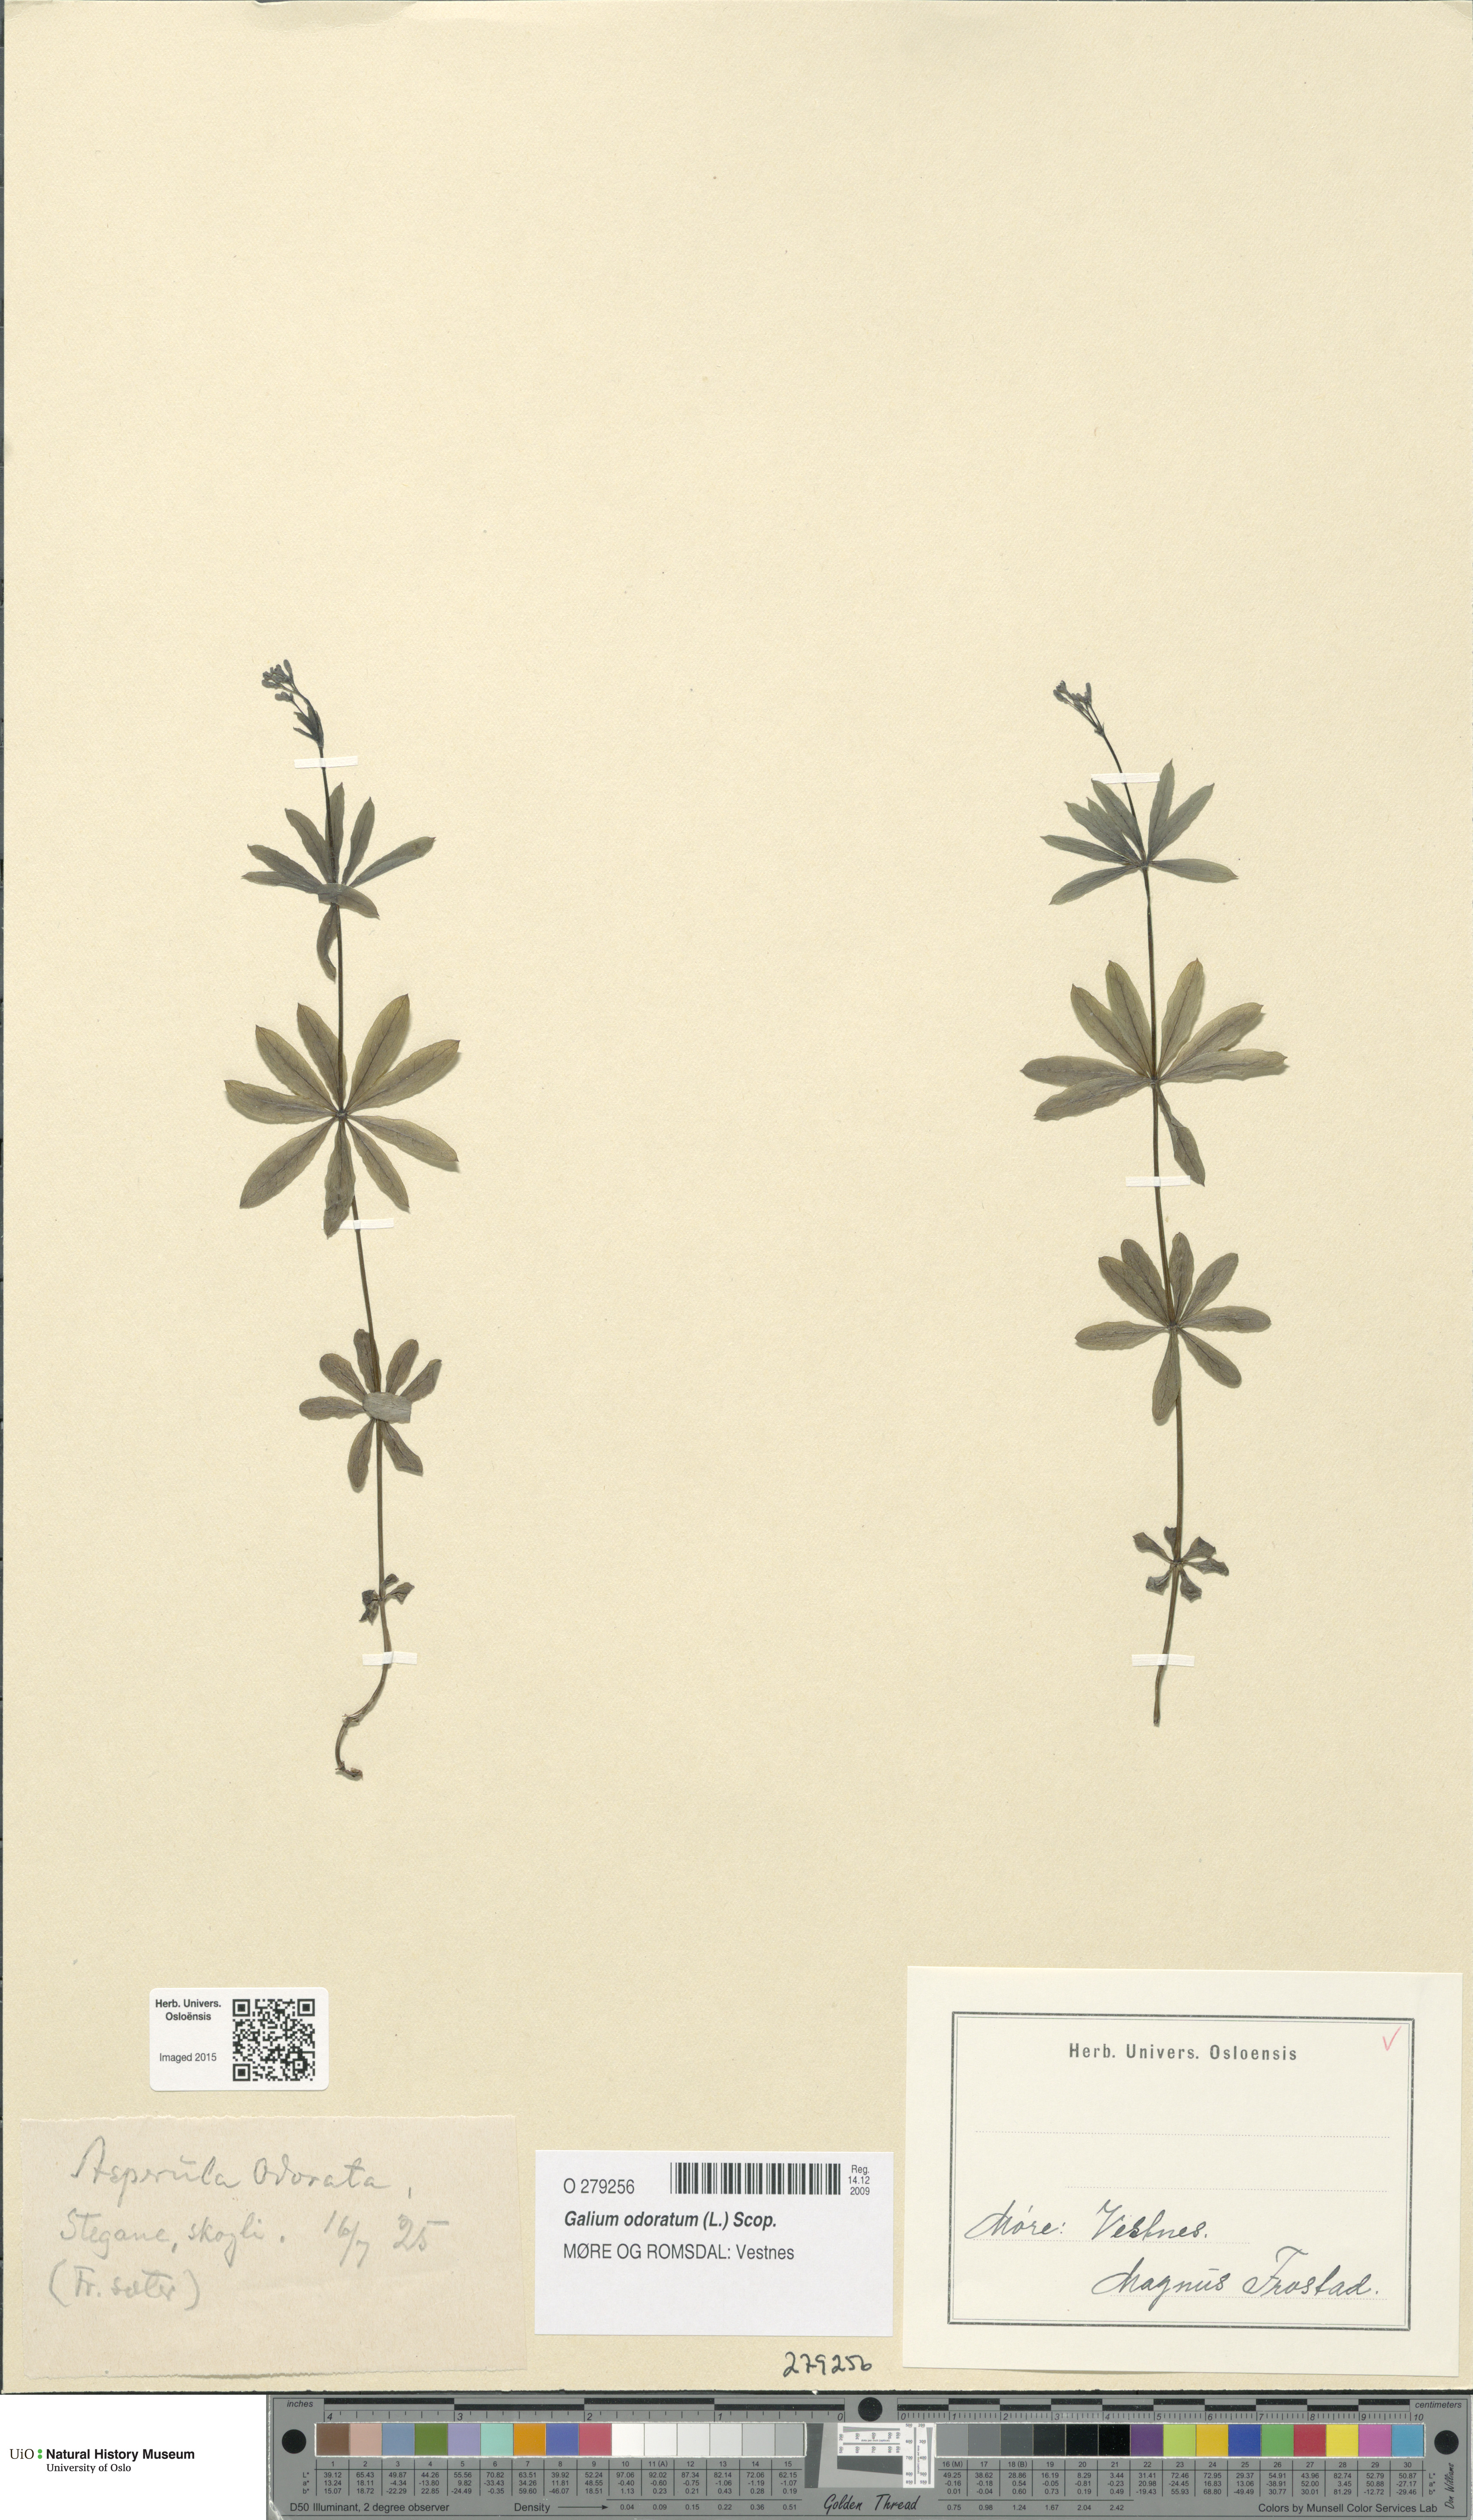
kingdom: Plantae
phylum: Tracheophyta
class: Magnoliopsida
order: Gentianales
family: Rubiaceae
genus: Galium
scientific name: Galium odoratum
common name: Sweet woodruff
